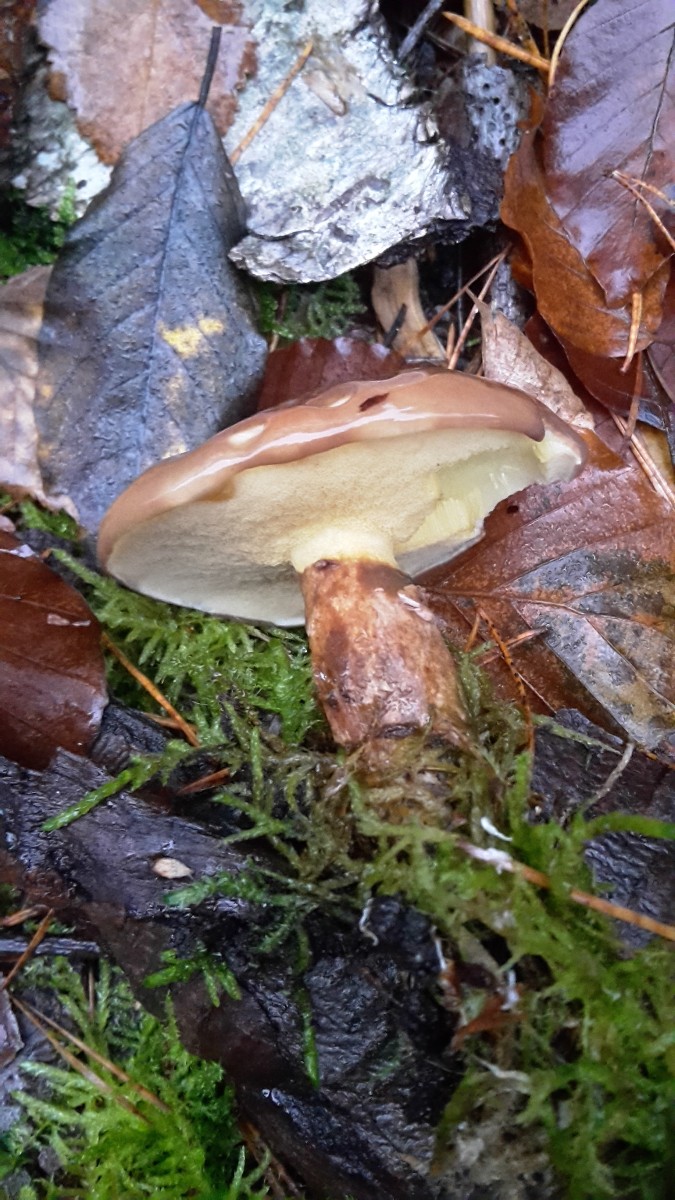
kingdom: Fungi
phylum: Basidiomycota
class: Agaricomycetes
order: Boletales
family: Suillaceae
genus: Suillus
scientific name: Suillus luteus
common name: brungul slimrørhat
